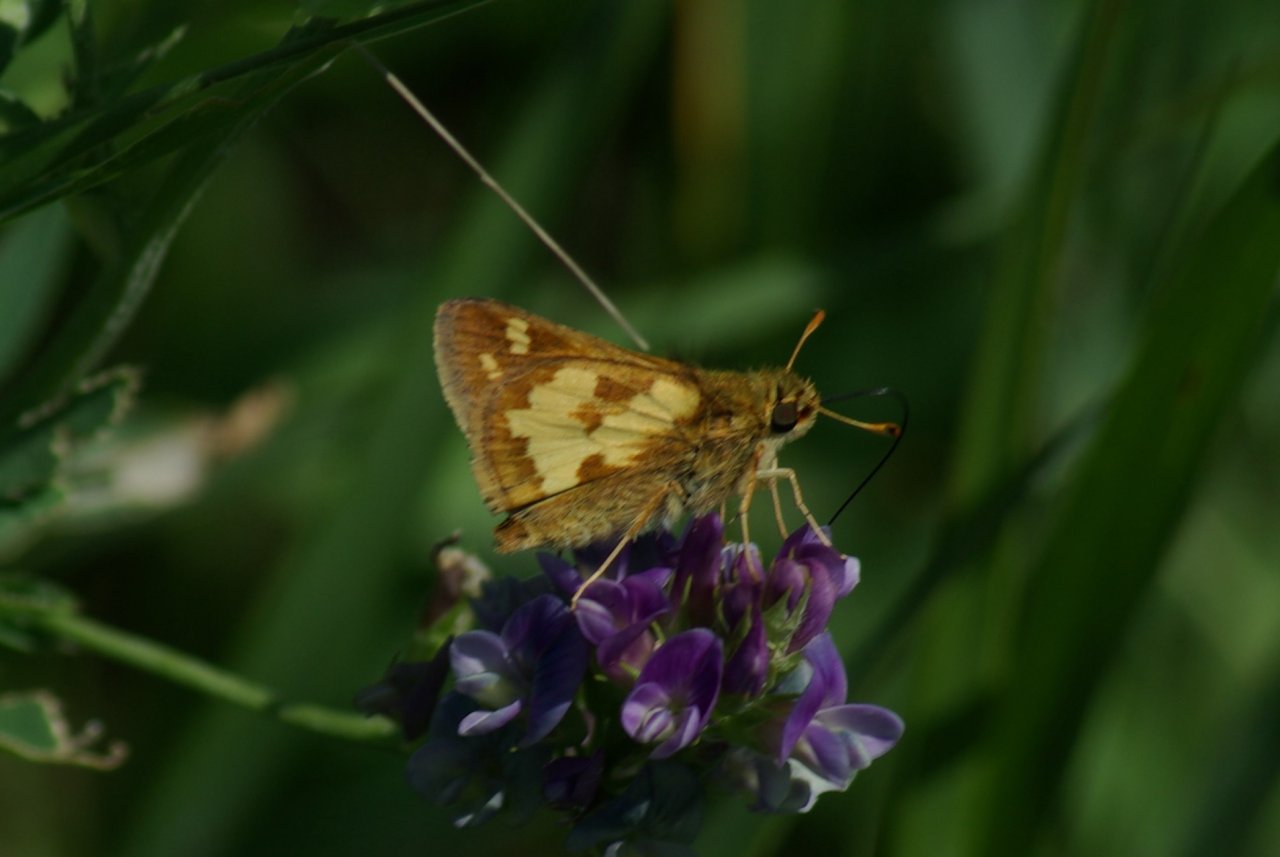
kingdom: Animalia
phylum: Arthropoda
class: Insecta
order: Lepidoptera
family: Hesperiidae
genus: Polites
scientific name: Polites coras
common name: Peck's Skipper
